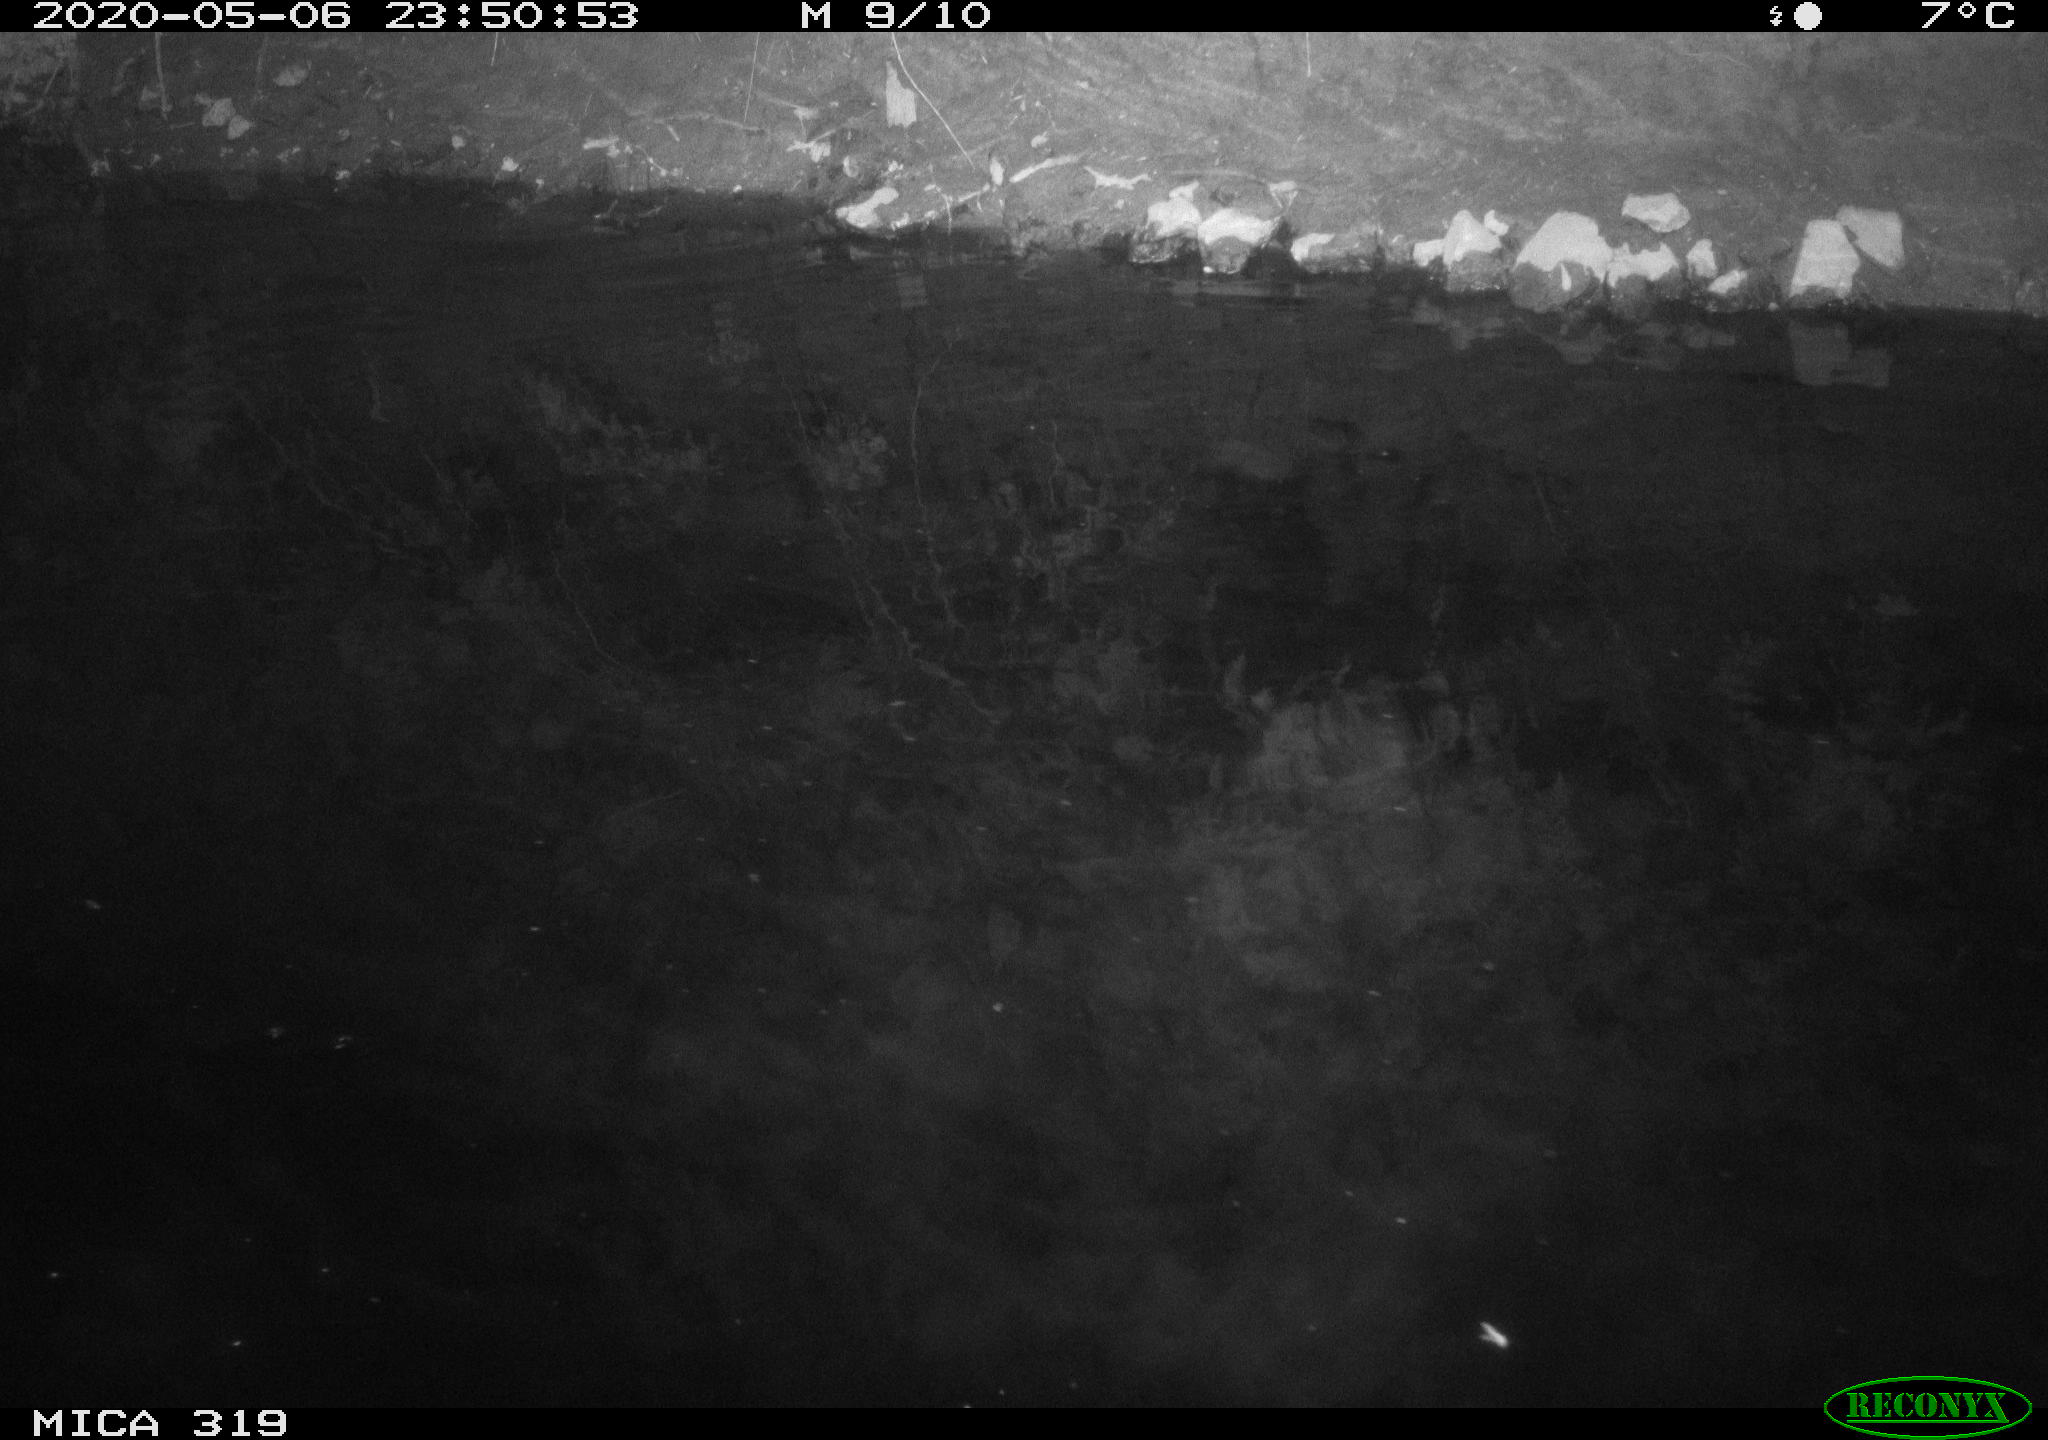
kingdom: Animalia
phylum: Chordata
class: Aves
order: Anseriformes
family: Anatidae
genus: Anas
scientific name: Anas platyrhynchos
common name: Mallard
